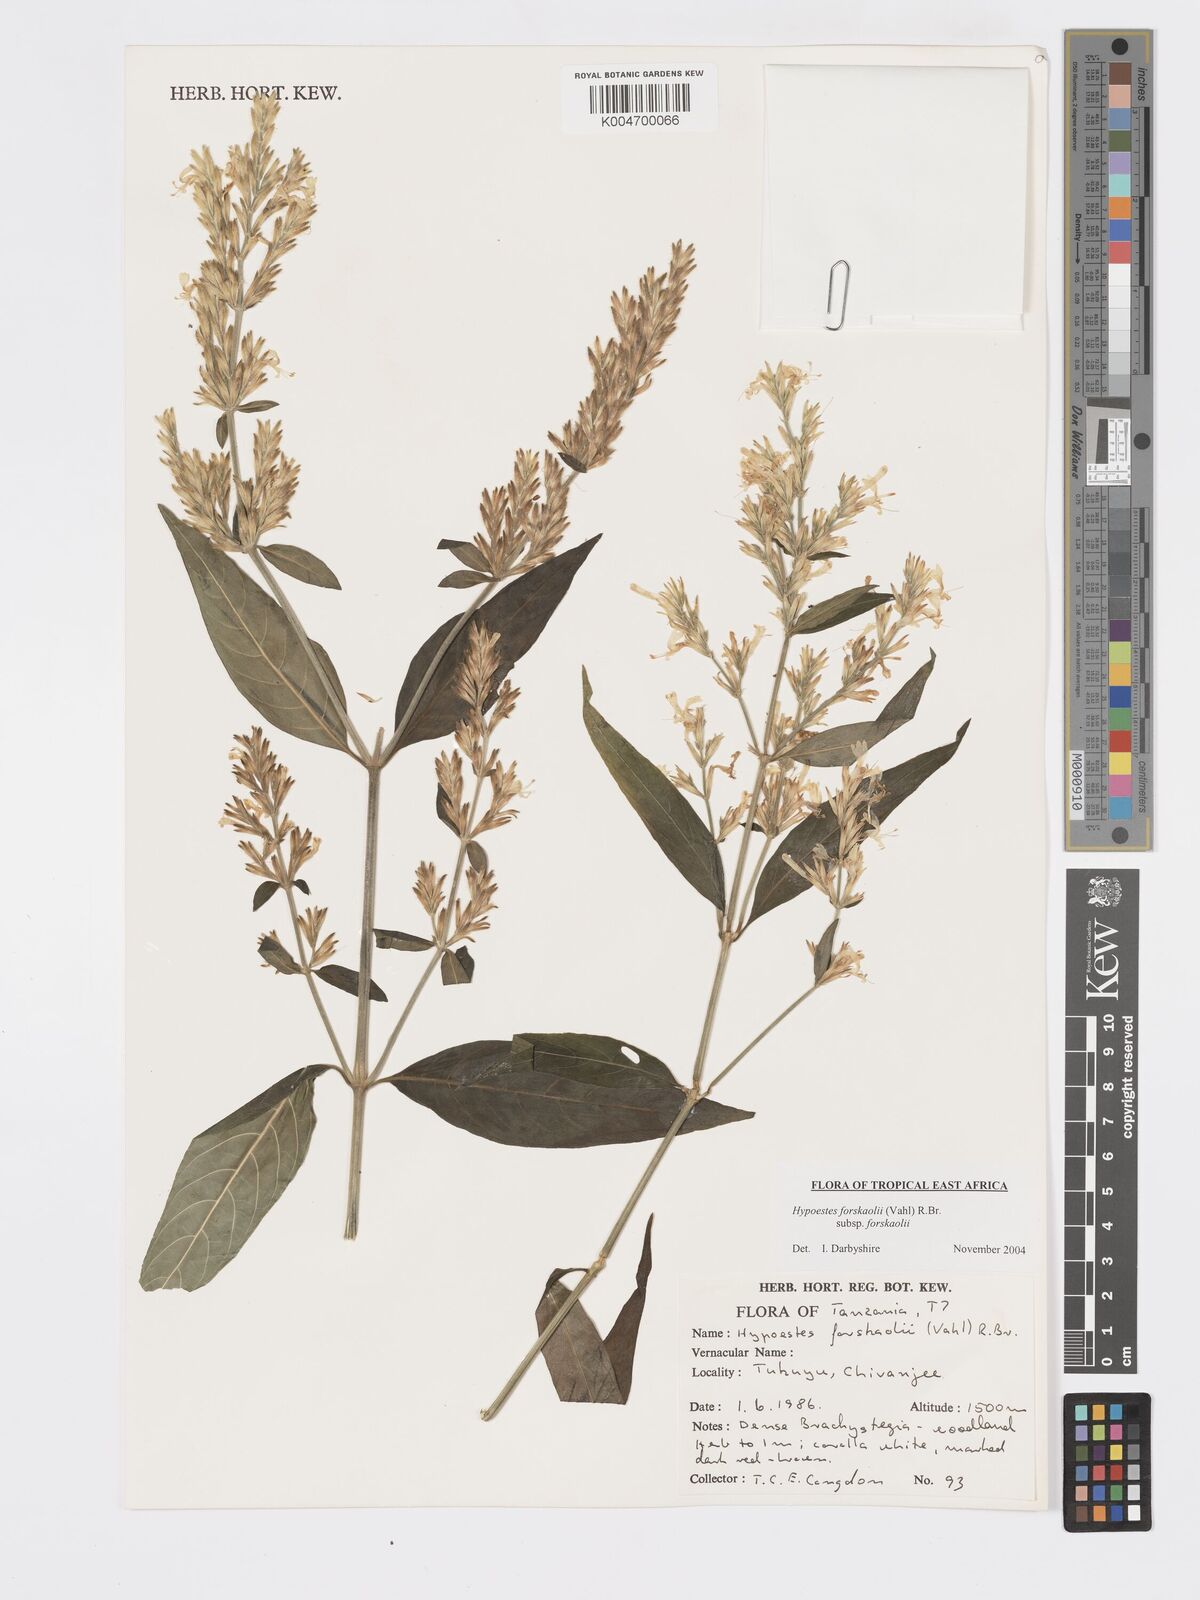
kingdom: Plantae
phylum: Tracheophyta
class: Magnoliopsida
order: Lamiales
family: Acanthaceae
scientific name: Acanthaceae
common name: Acanthaceae
